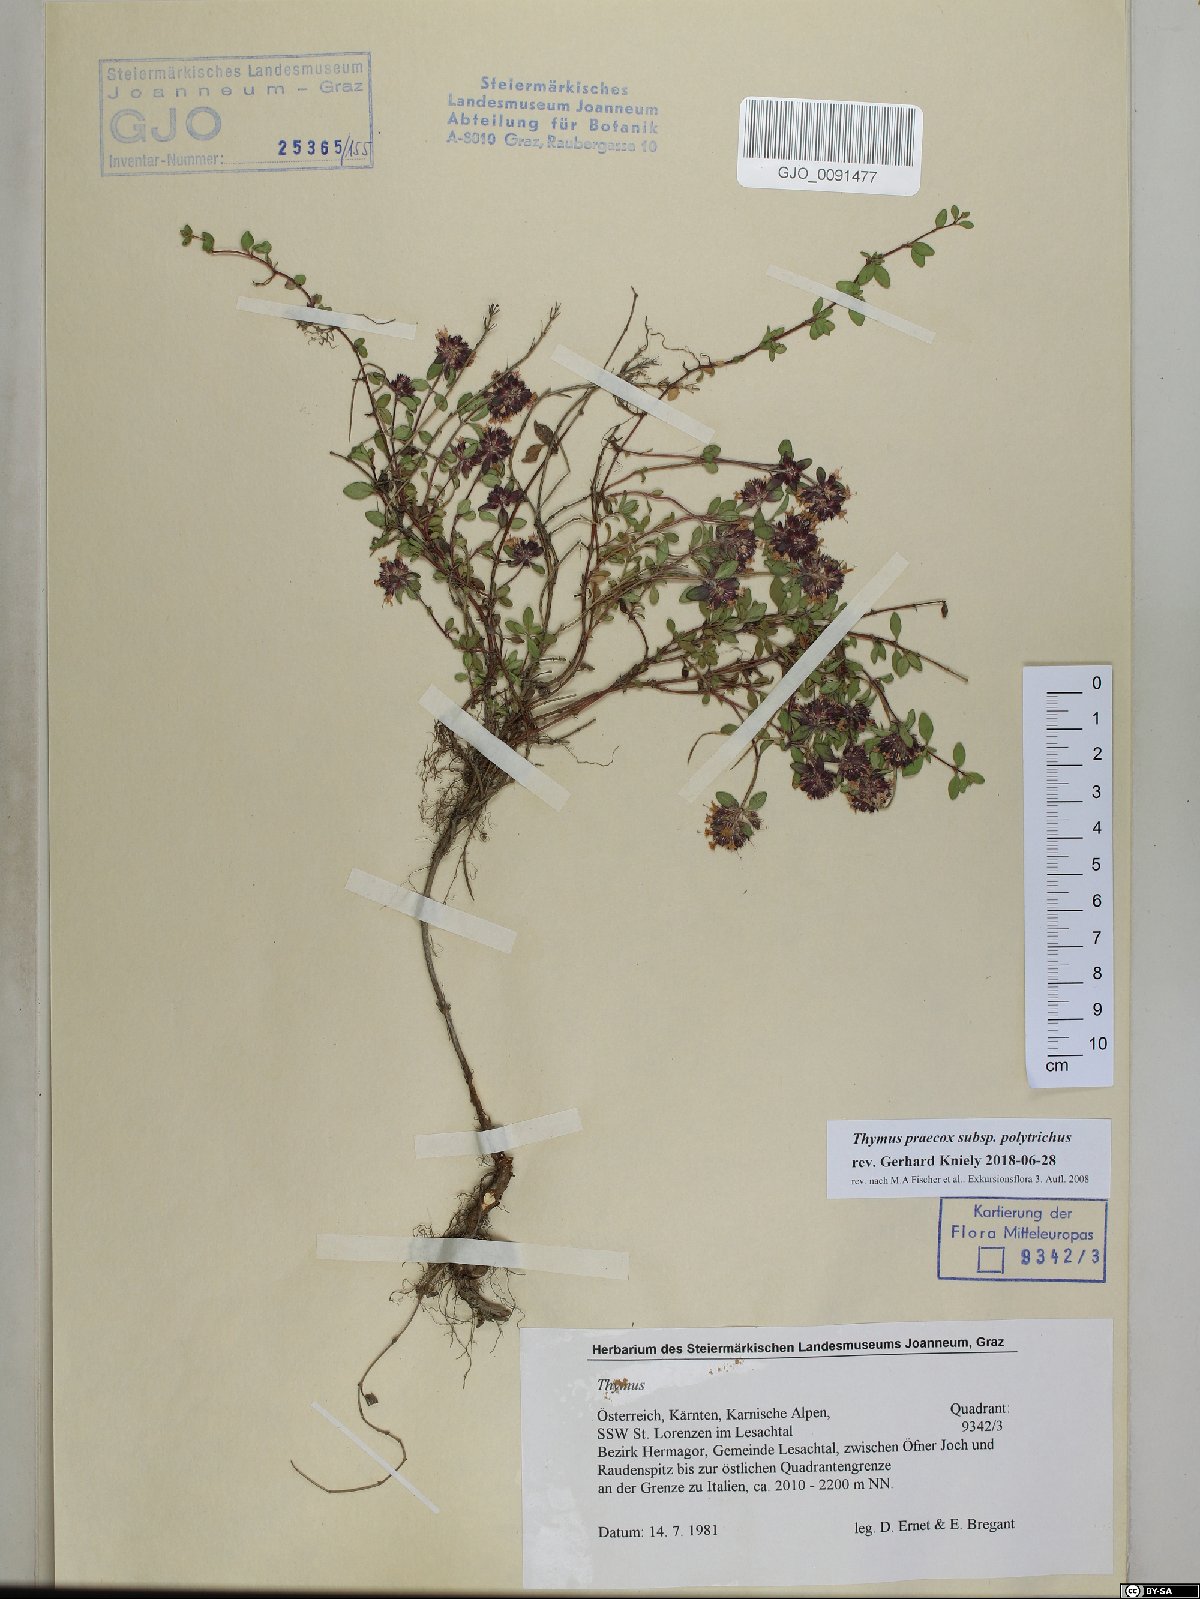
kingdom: Plantae
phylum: Tracheophyta
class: Magnoliopsida
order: Lamiales
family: Lamiaceae
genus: Thymus
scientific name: Thymus praecox
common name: Wild thyme
